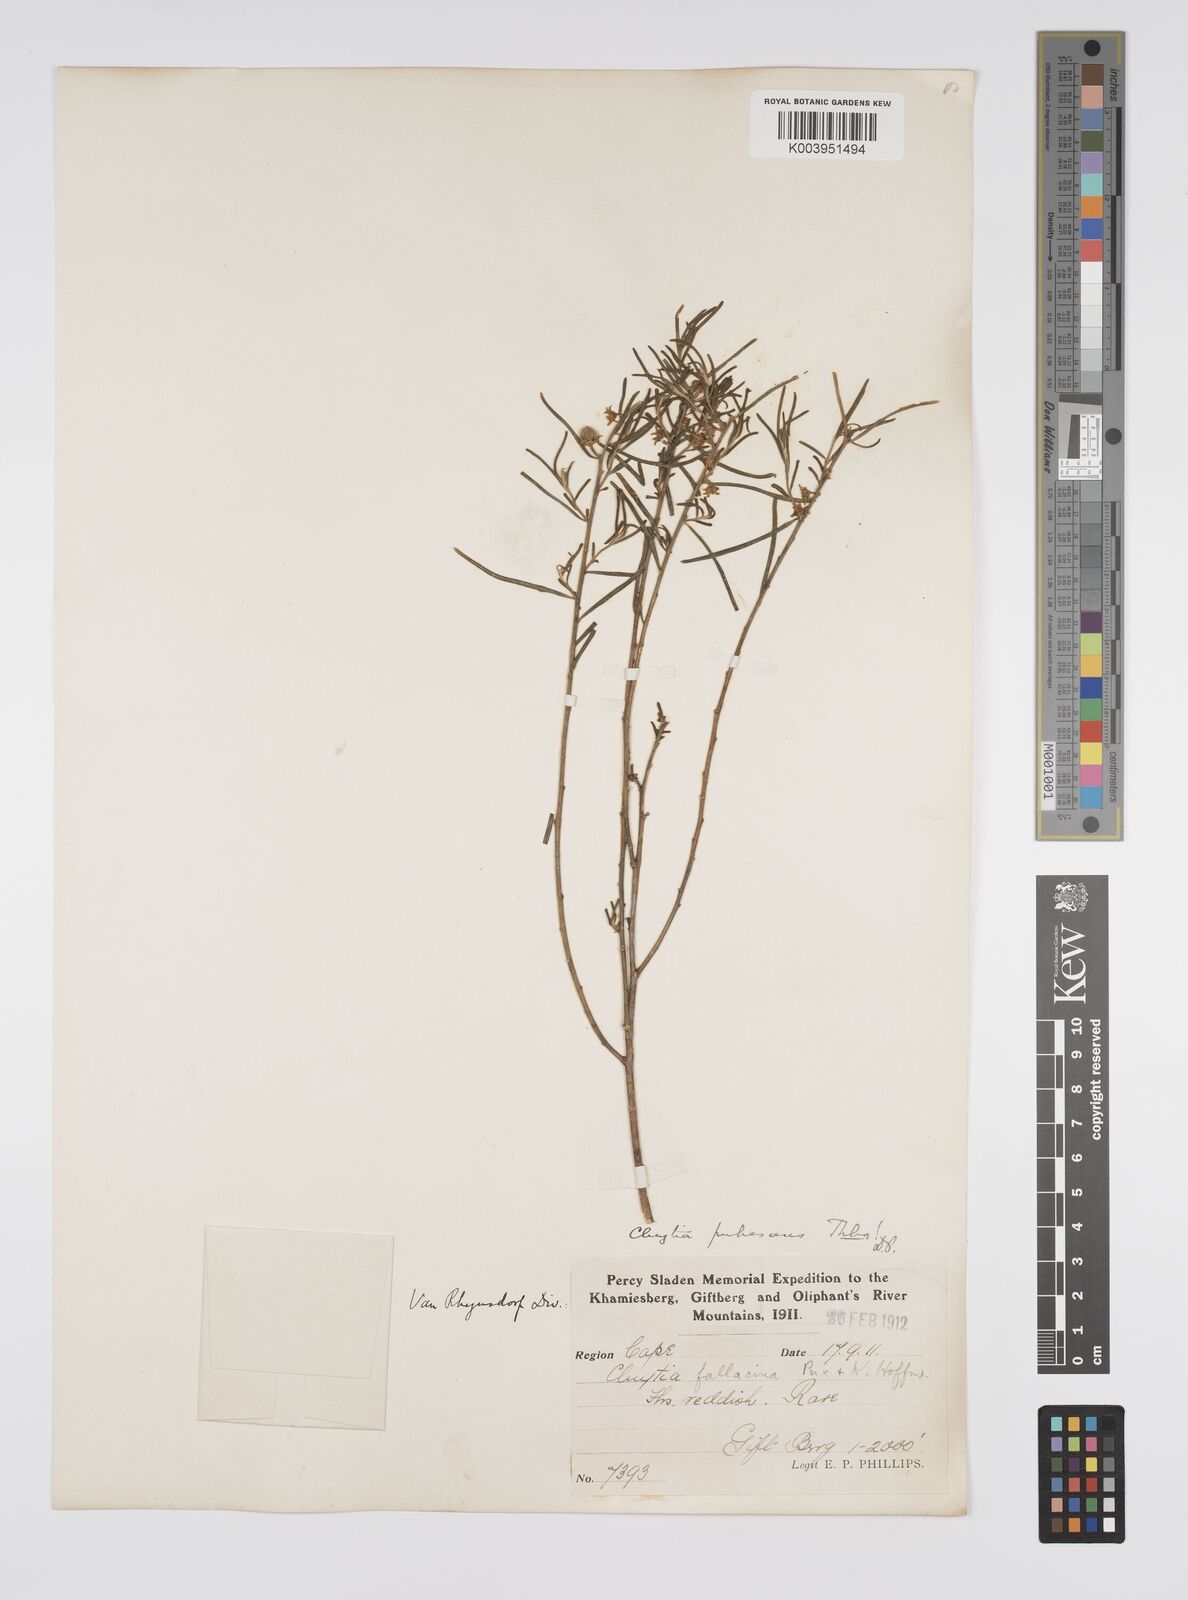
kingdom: Plantae
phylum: Tracheophyta
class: Magnoliopsida
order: Malpighiales
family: Peraceae
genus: Clutia
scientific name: Clutia
